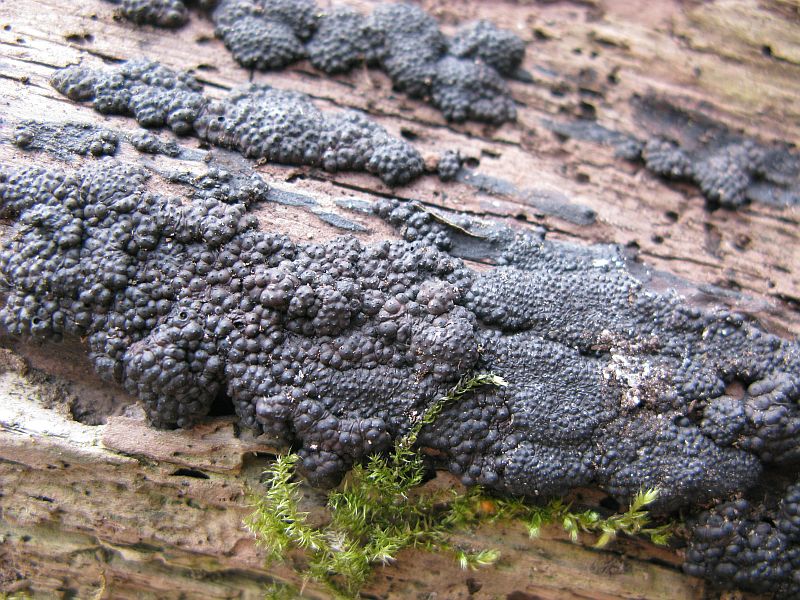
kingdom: Fungi
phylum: Ascomycota
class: Sordariomycetes
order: Xylariales
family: Hypoxylaceae
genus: Jackrogersella
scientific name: Jackrogersella multiformis
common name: foranderlig kulbær
